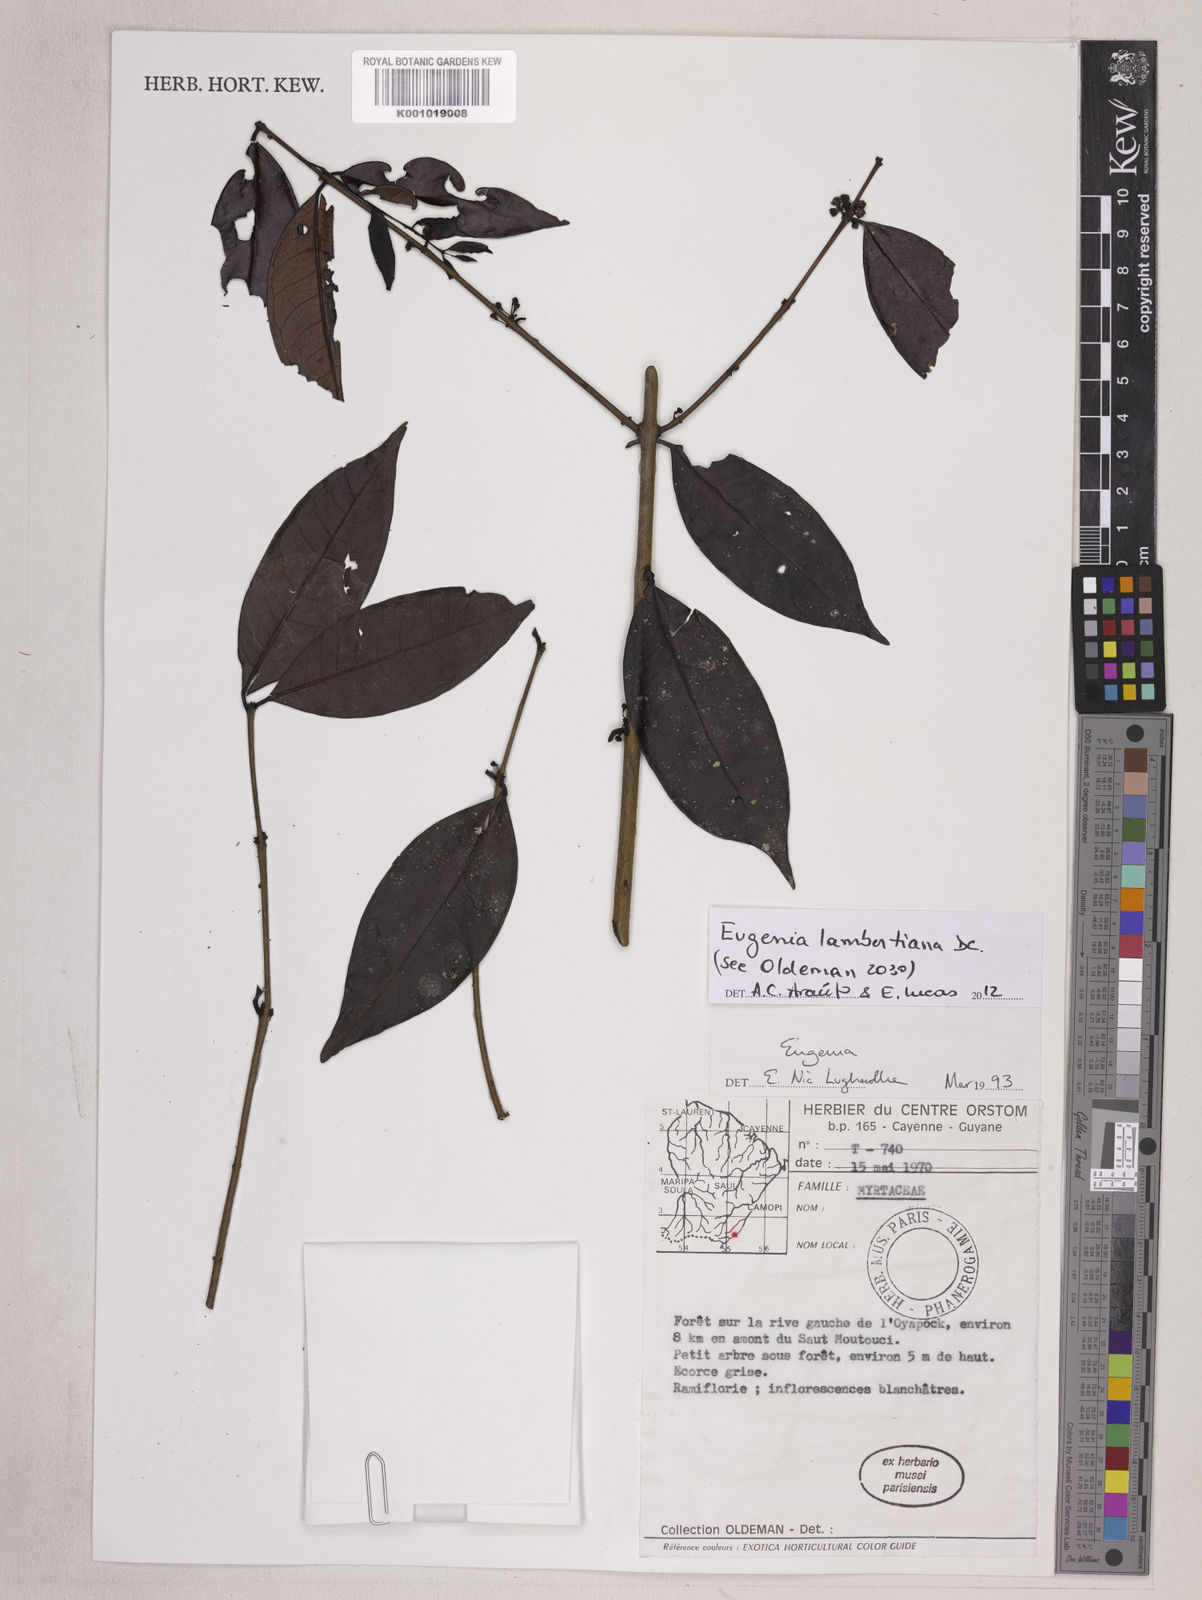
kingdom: Plantae
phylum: Tracheophyta
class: Magnoliopsida
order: Myrtales
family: Myrtaceae
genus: Eugenia
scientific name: Eugenia lambertiana
